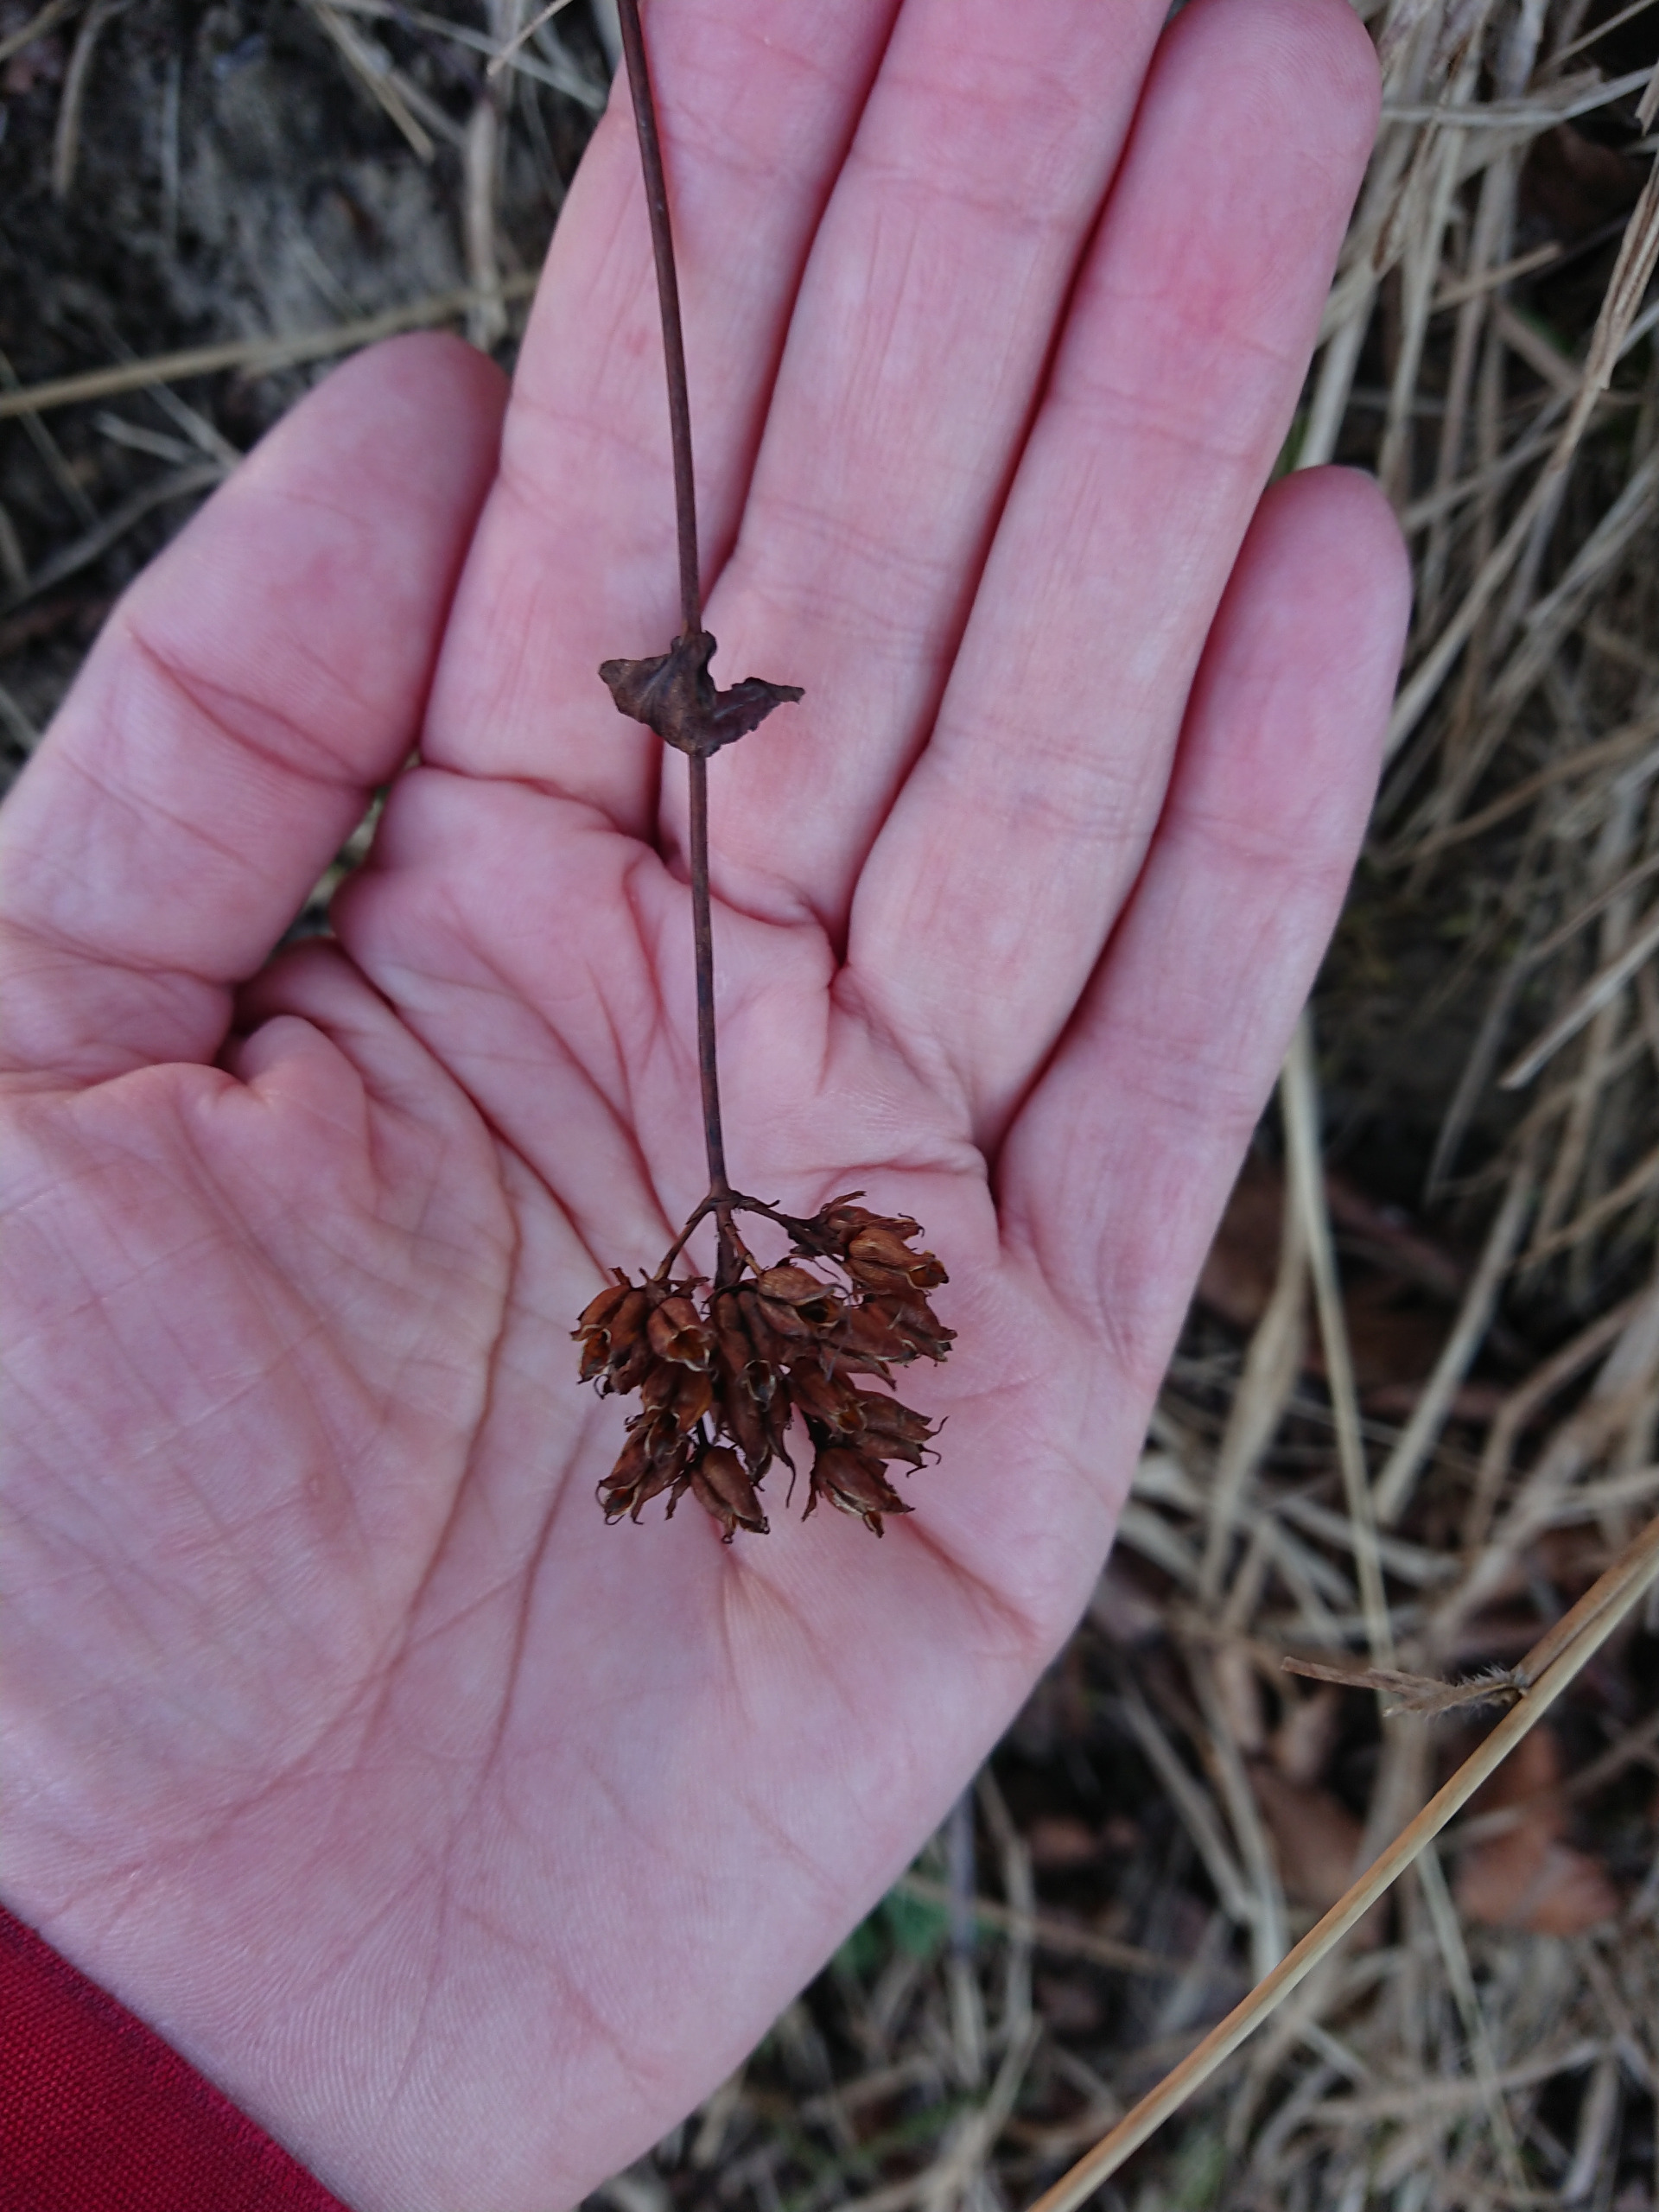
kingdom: Plantae
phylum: Tracheophyta
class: Magnoliopsida
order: Malpighiales
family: Hypericaceae
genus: Hypericum
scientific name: Hypericum montanum
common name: Bjerg-perikon
